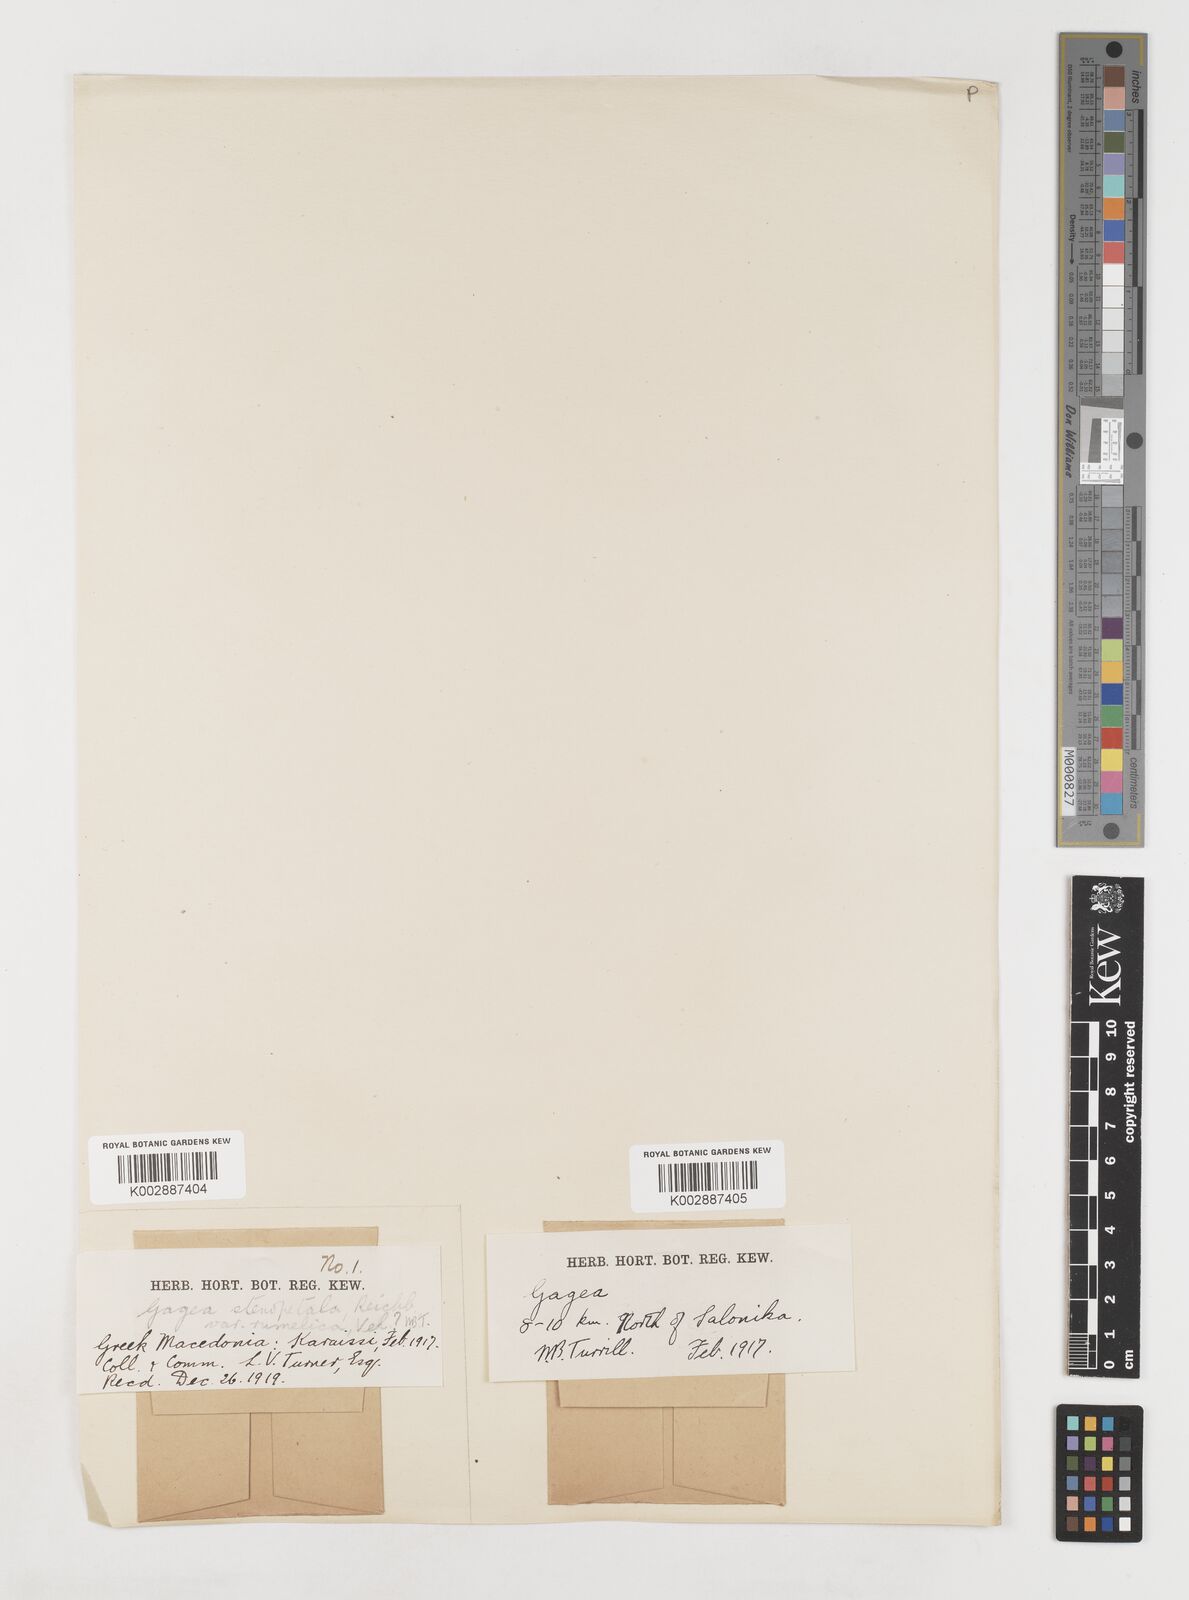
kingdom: Plantae
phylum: Tracheophyta
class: Liliopsida
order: Liliales
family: Liliaceae
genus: Gagea
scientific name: Gagea pratensis
